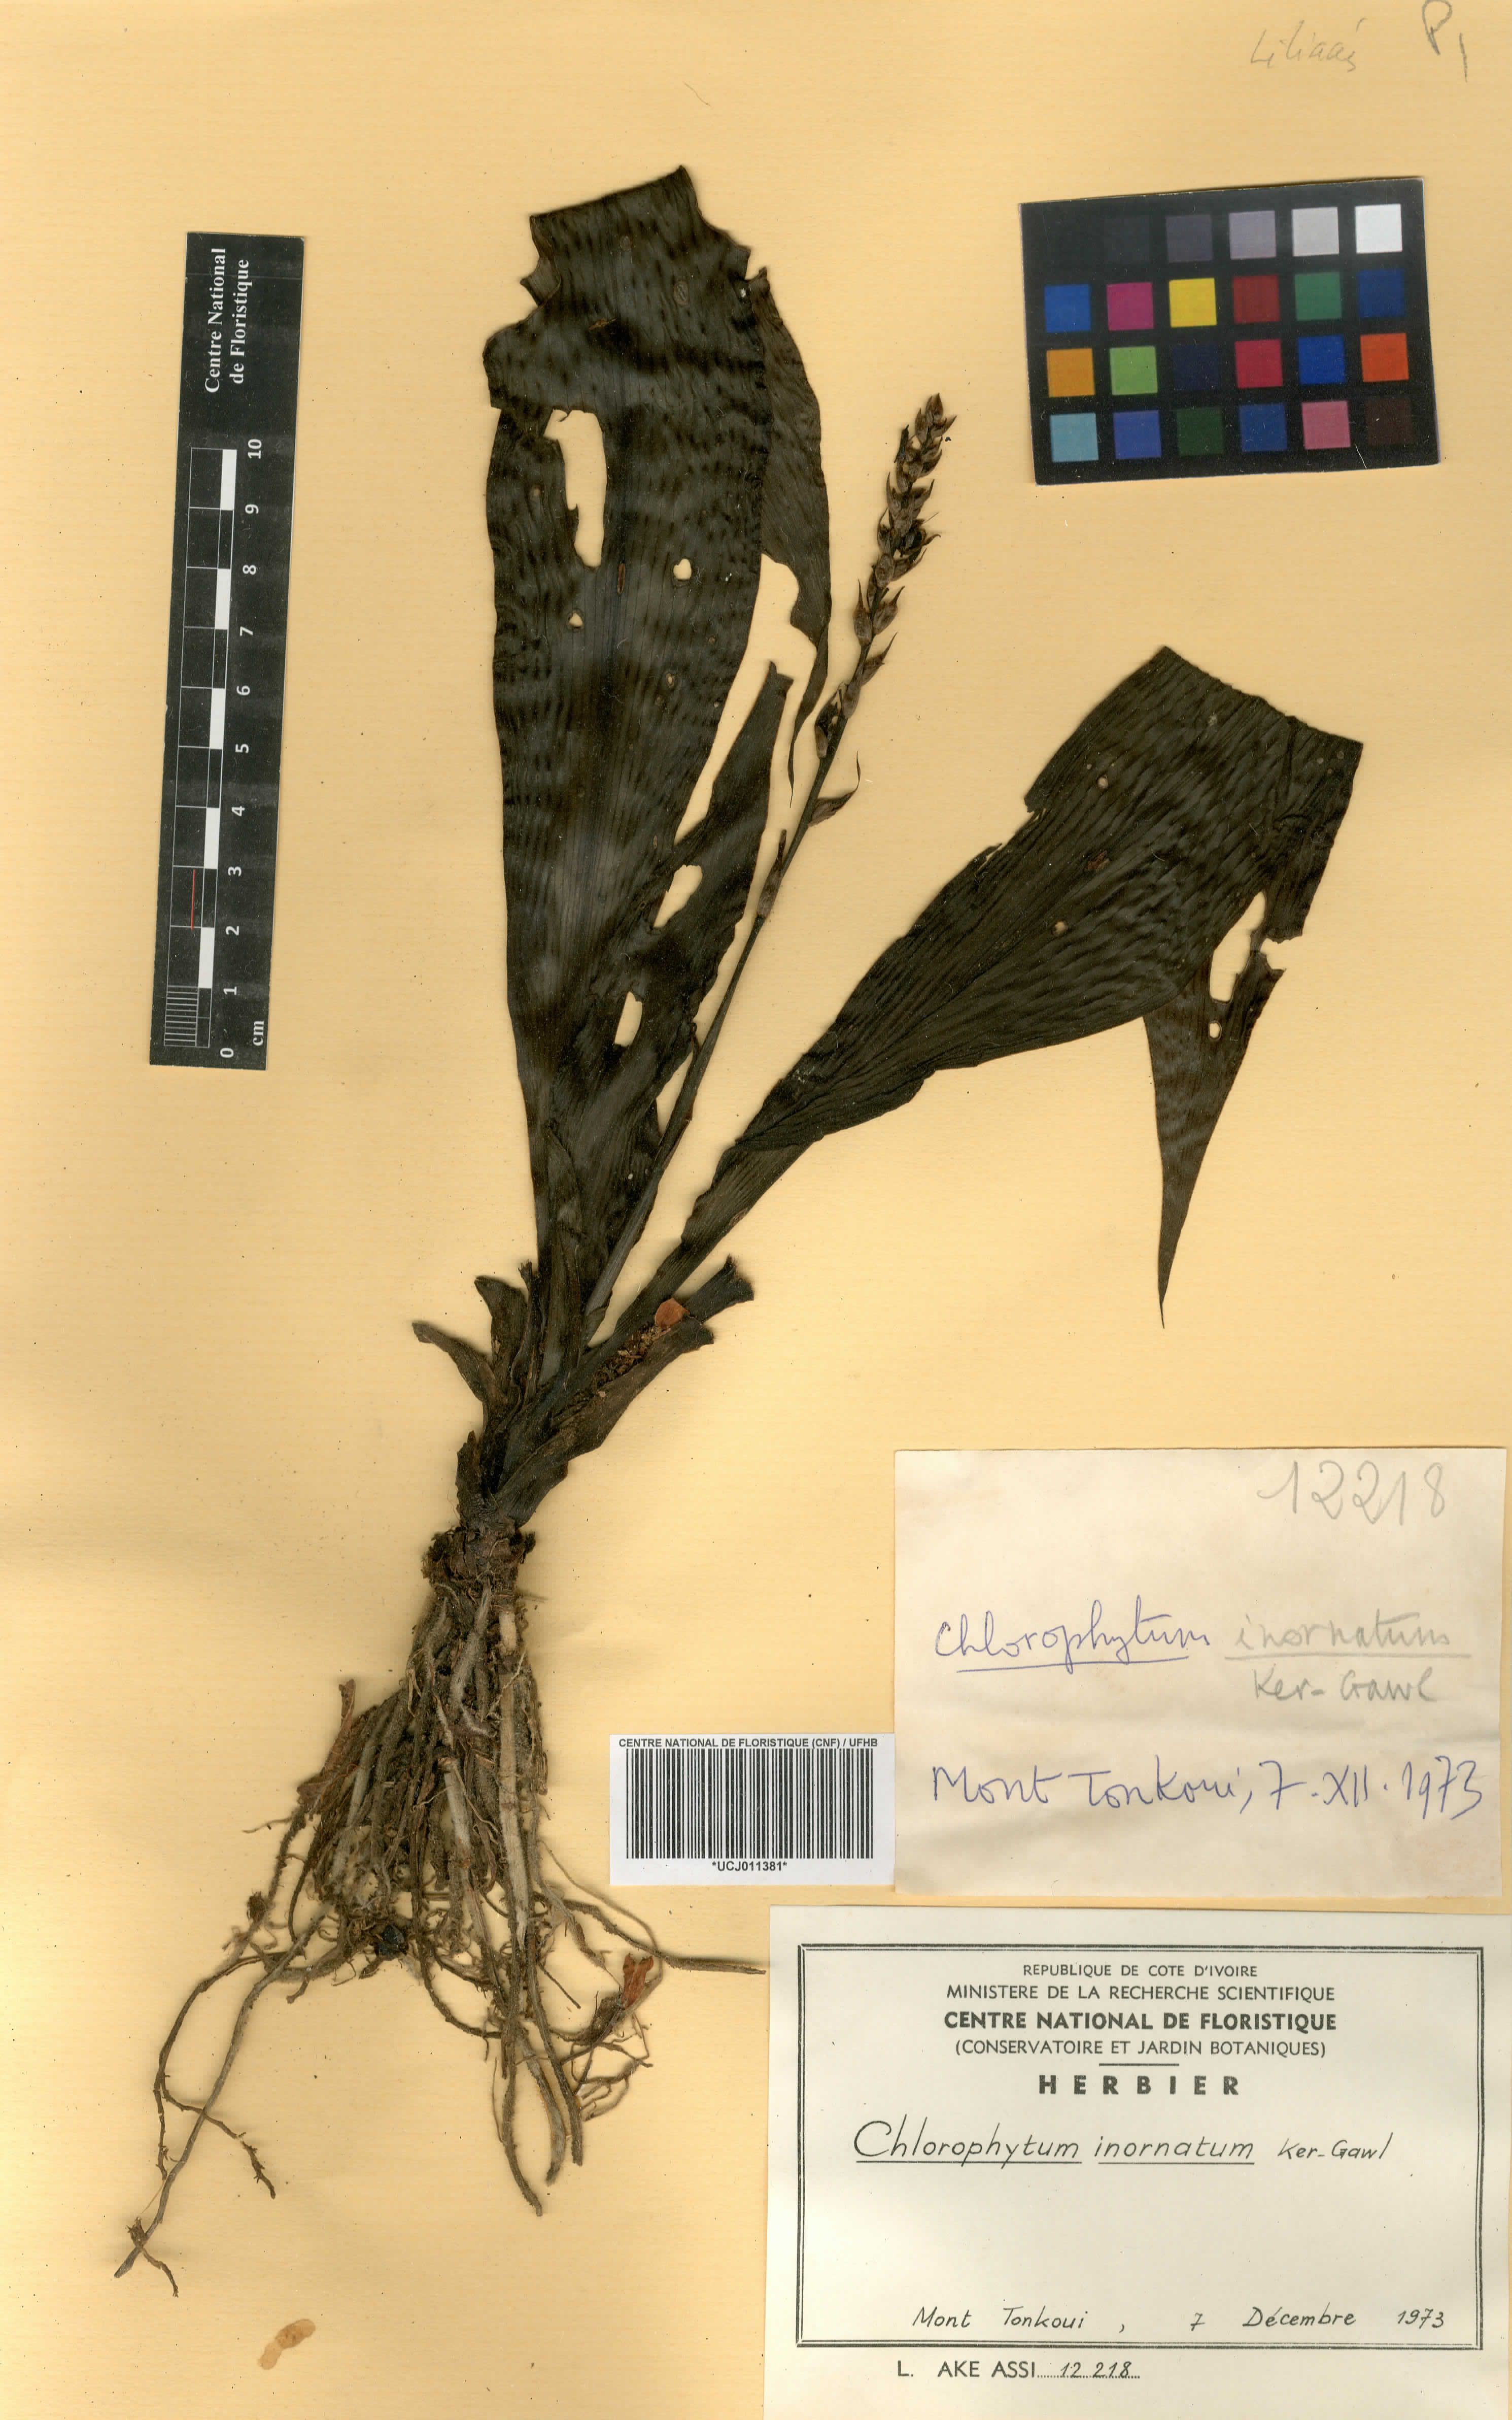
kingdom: Plantae
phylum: Tracheophyta
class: Liliopsida
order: Asparagales
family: Asparagaceae
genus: Chlorophytum
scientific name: Chlorophytum inornatum
